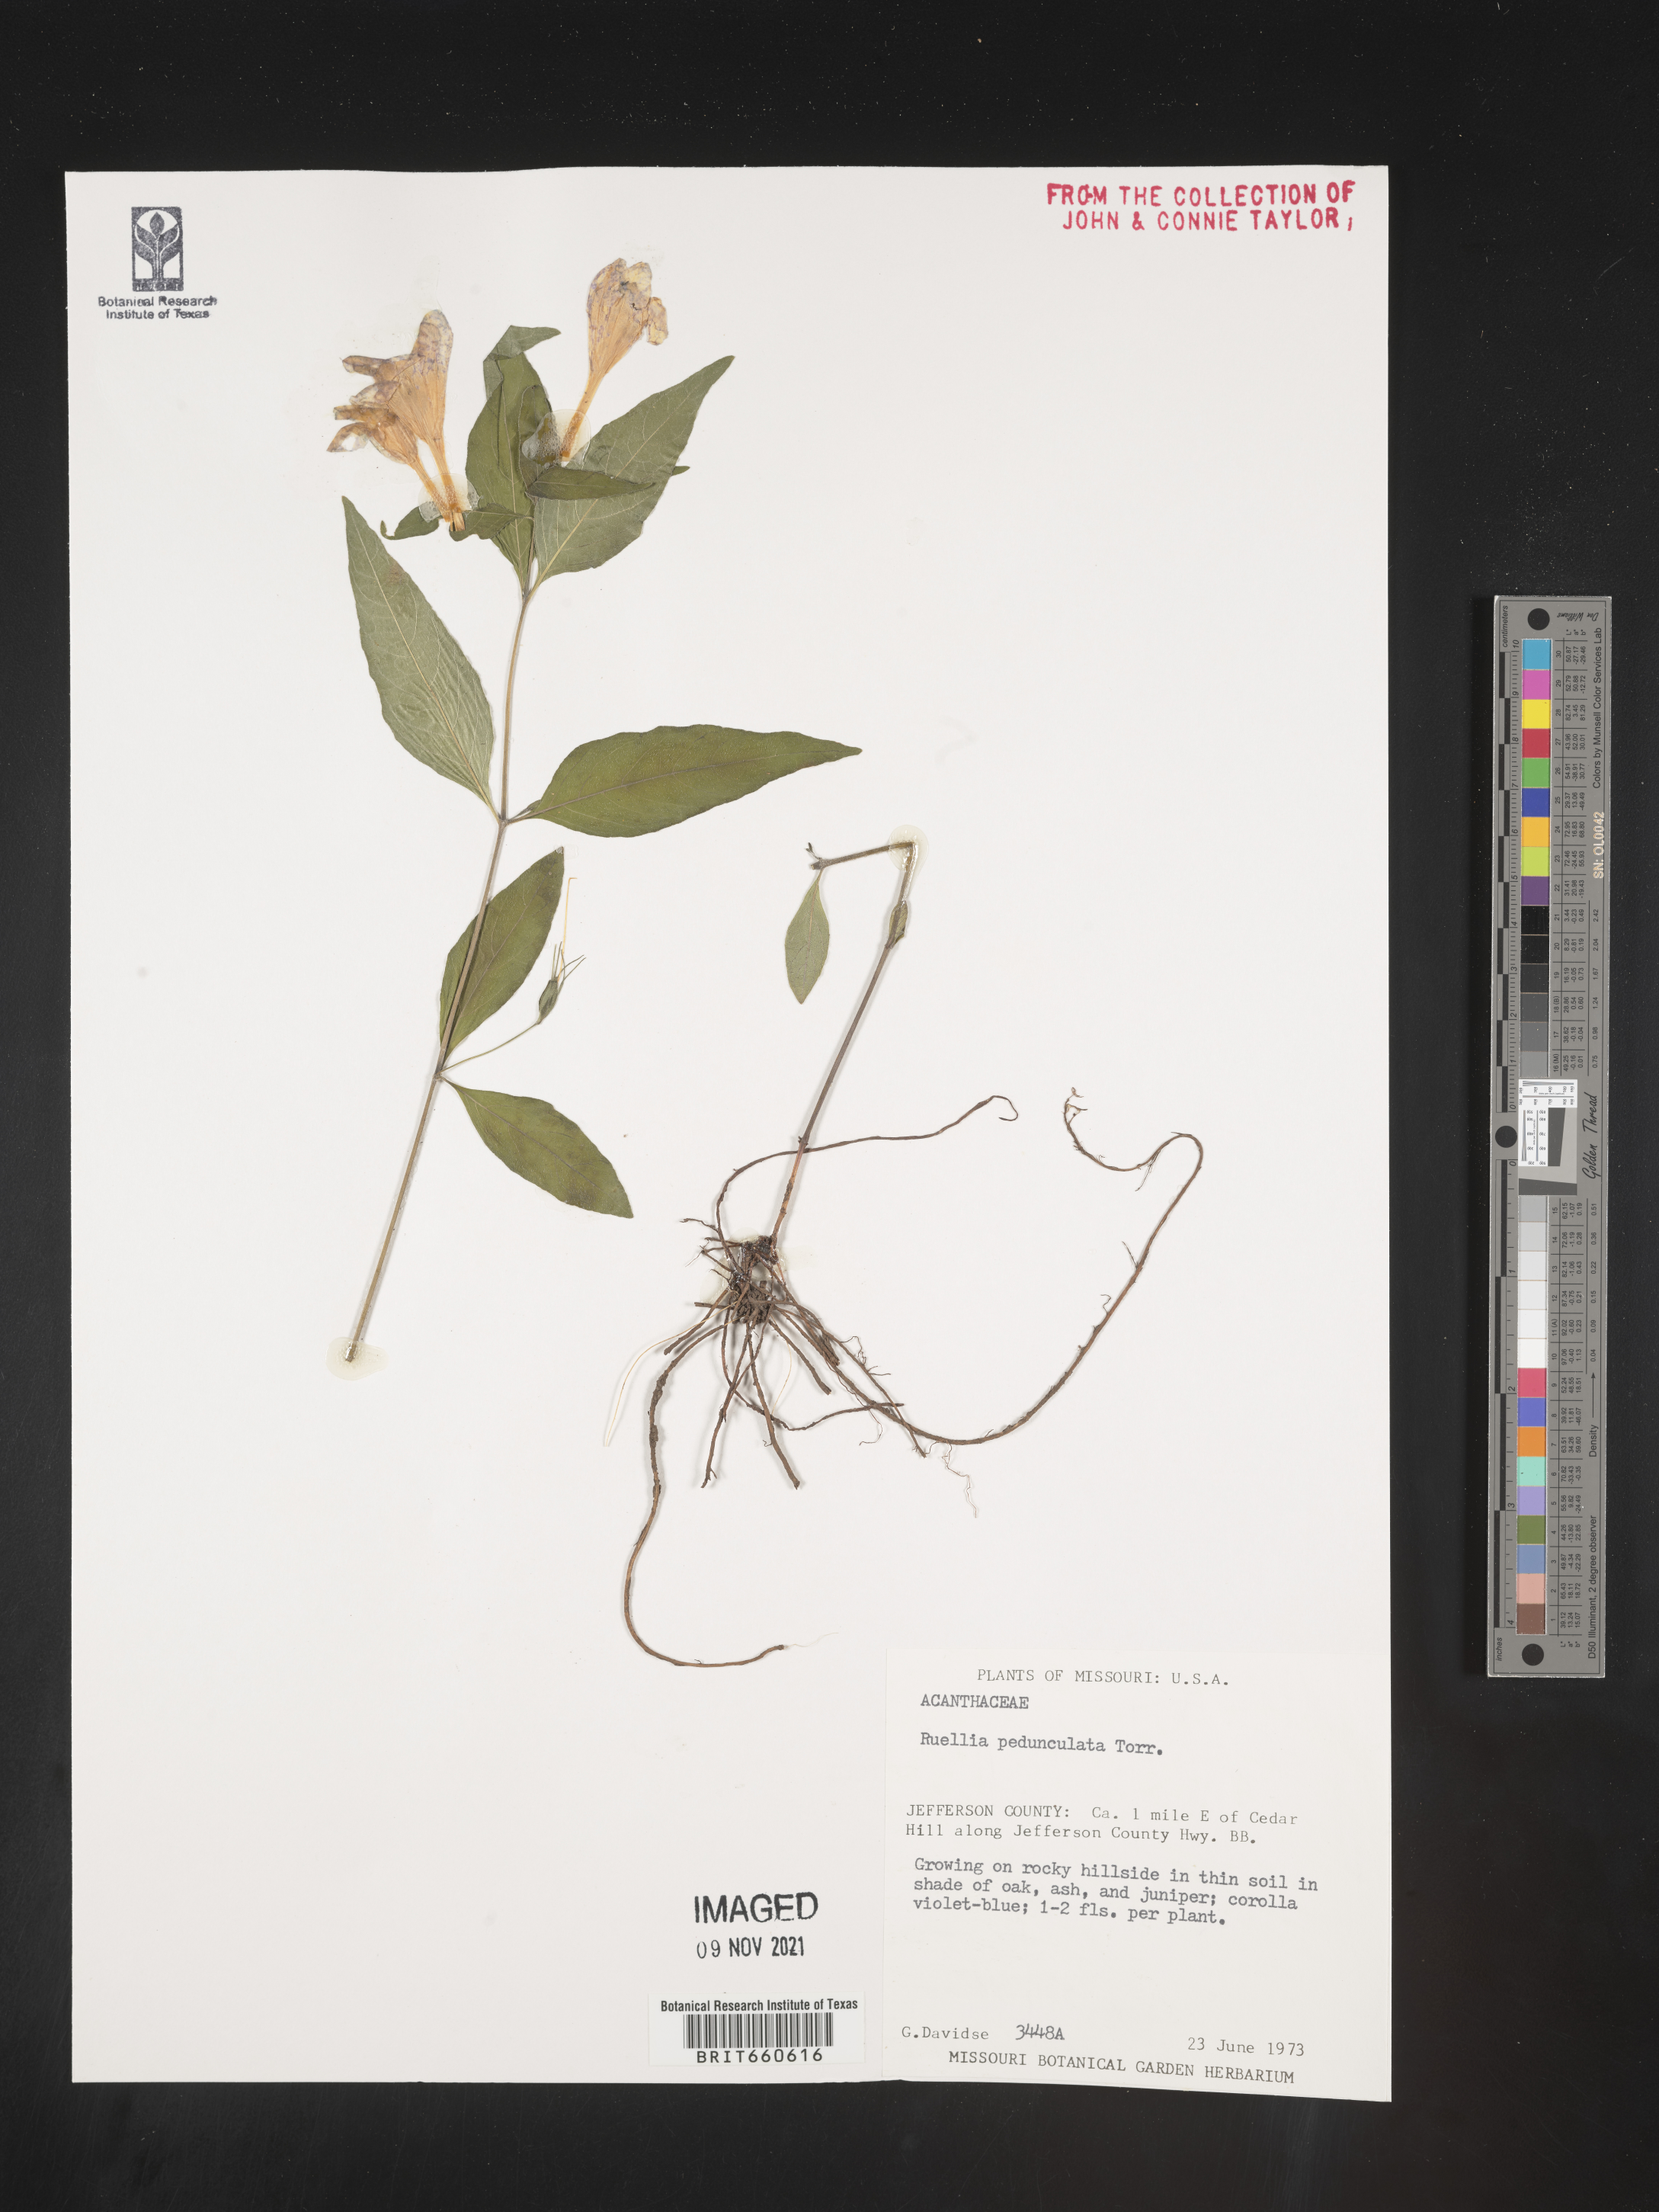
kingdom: Plantae
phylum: Tracheophyta
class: Magnoliopsida
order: Lamiales
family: Acanthaceae
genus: Ruellia
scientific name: Ruellia pedunculata
